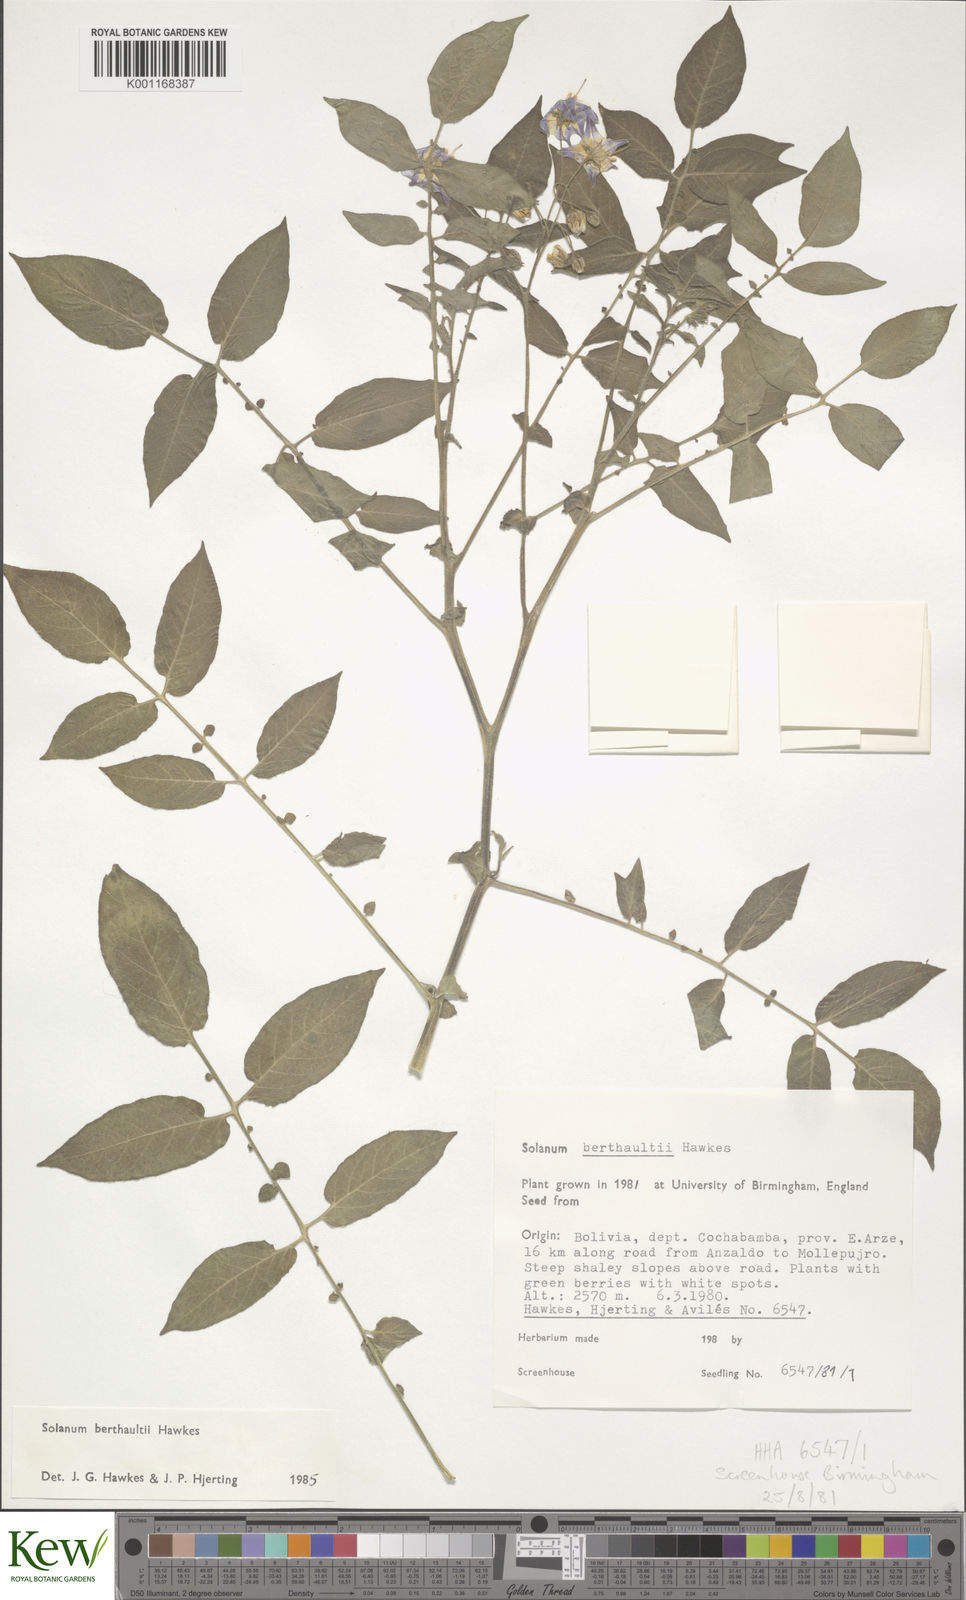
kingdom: Plantae
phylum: Tracheophyta
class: Magnoliopsida
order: Solanales
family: Solanaceae
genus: Solanum
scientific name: Solanum berthaultii
